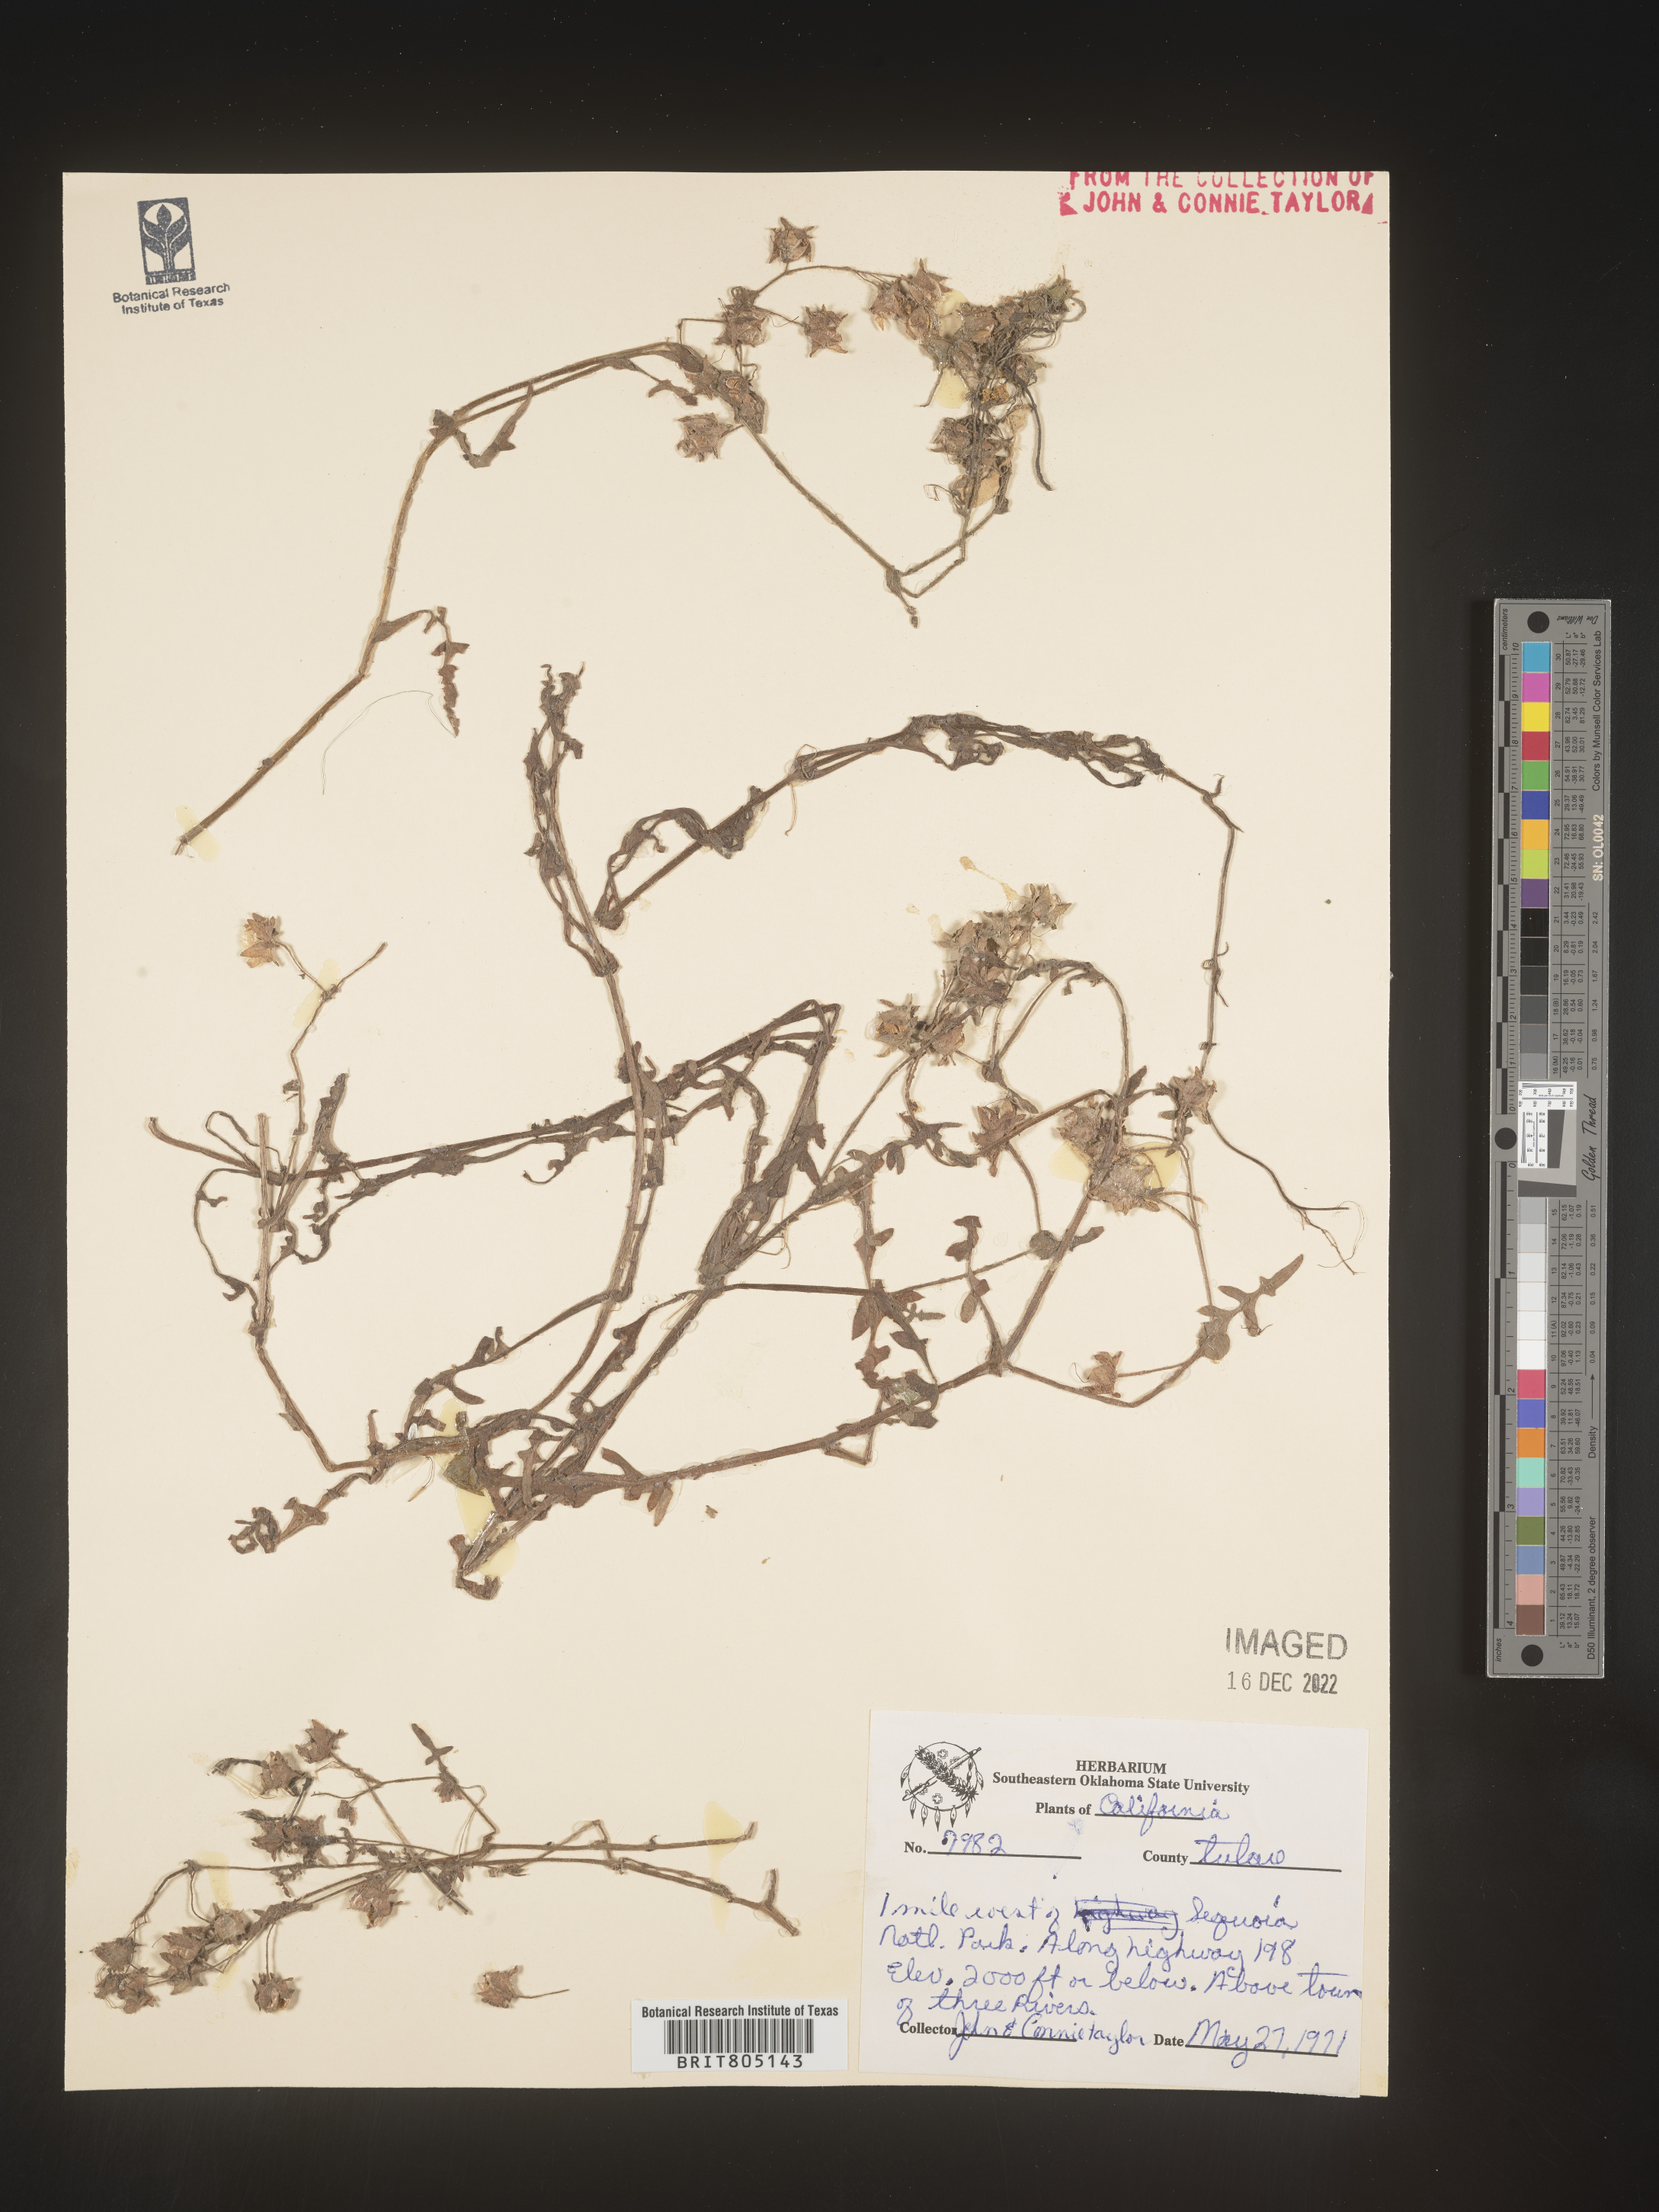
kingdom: Plantae
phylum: Tracheophyta
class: Magnoliopsida
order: Solanales
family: Convolvulaceae
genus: Ipomoea
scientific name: Ipomoea
